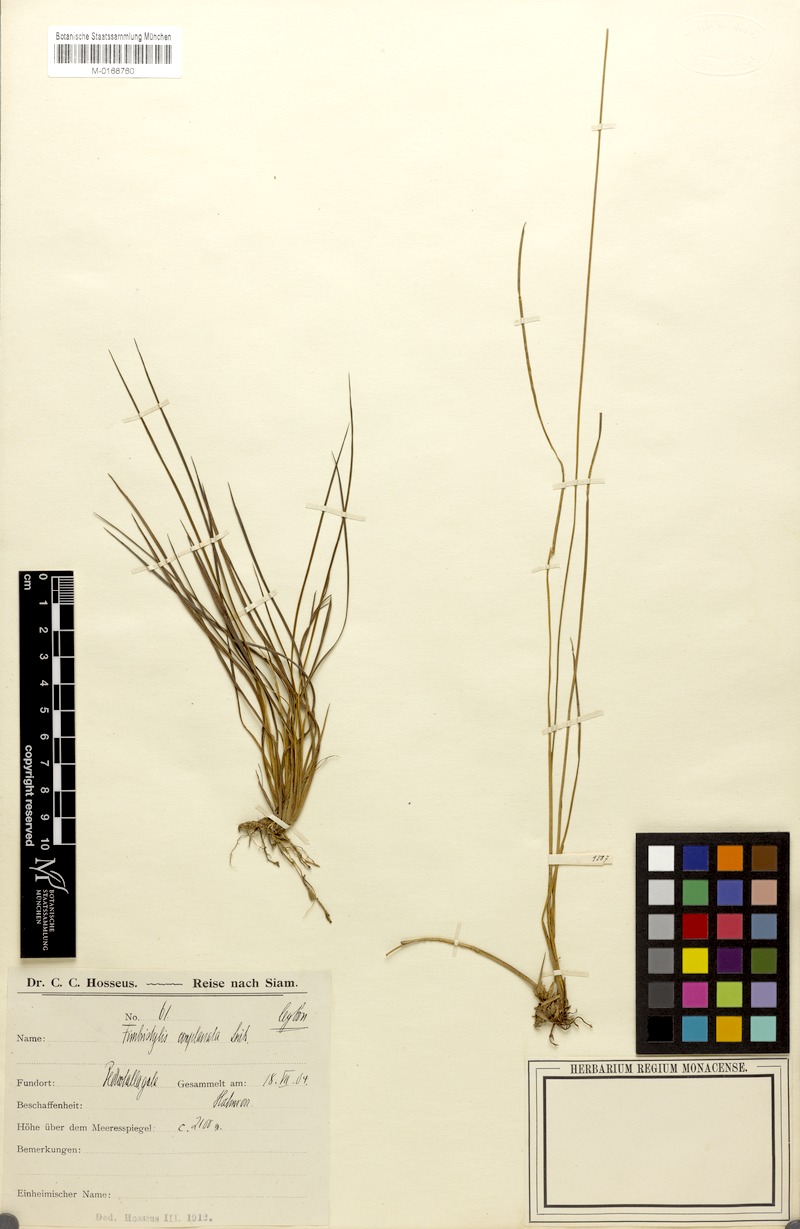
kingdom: Plantae
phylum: Tracheophyta
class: Liliopsida
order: Poales
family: Cyperaceae
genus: Fimbristylis
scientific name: Fimbristylis complanata
